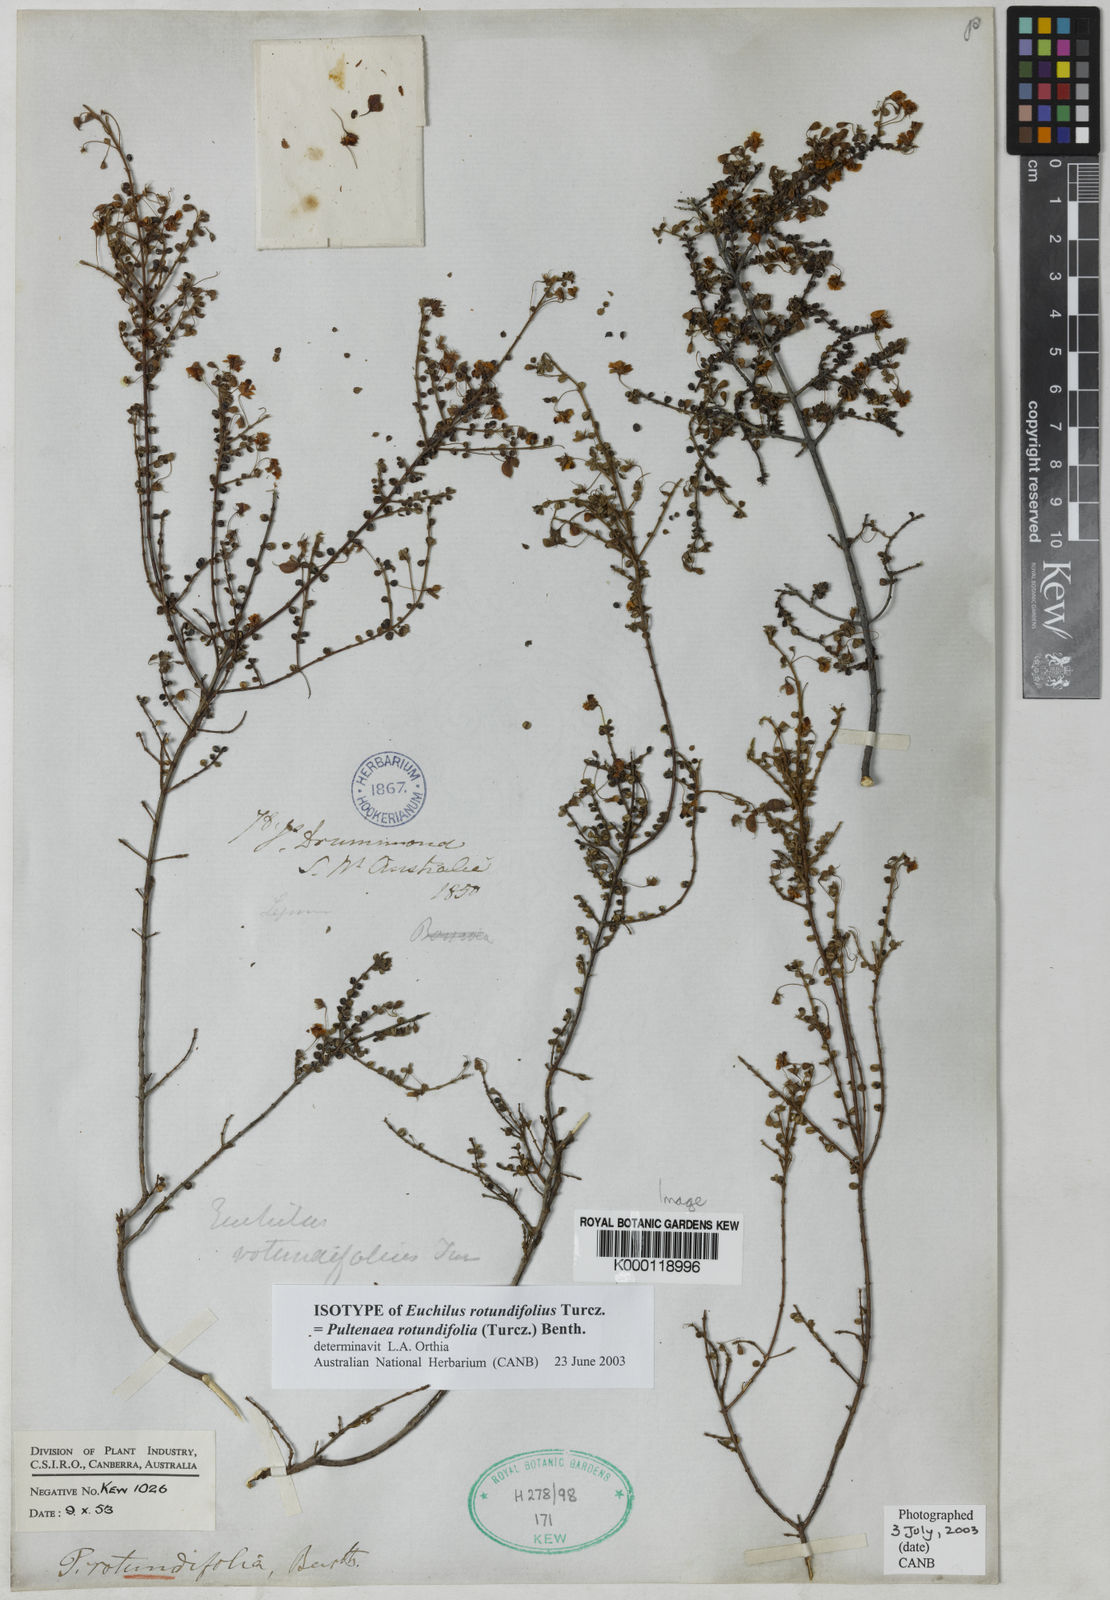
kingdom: Plantae
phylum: Tracheophyta
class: Magnoliopsida
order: Fabales
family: Fabaceae
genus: Pultenaea
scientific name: Pultenaea rotundifolia
